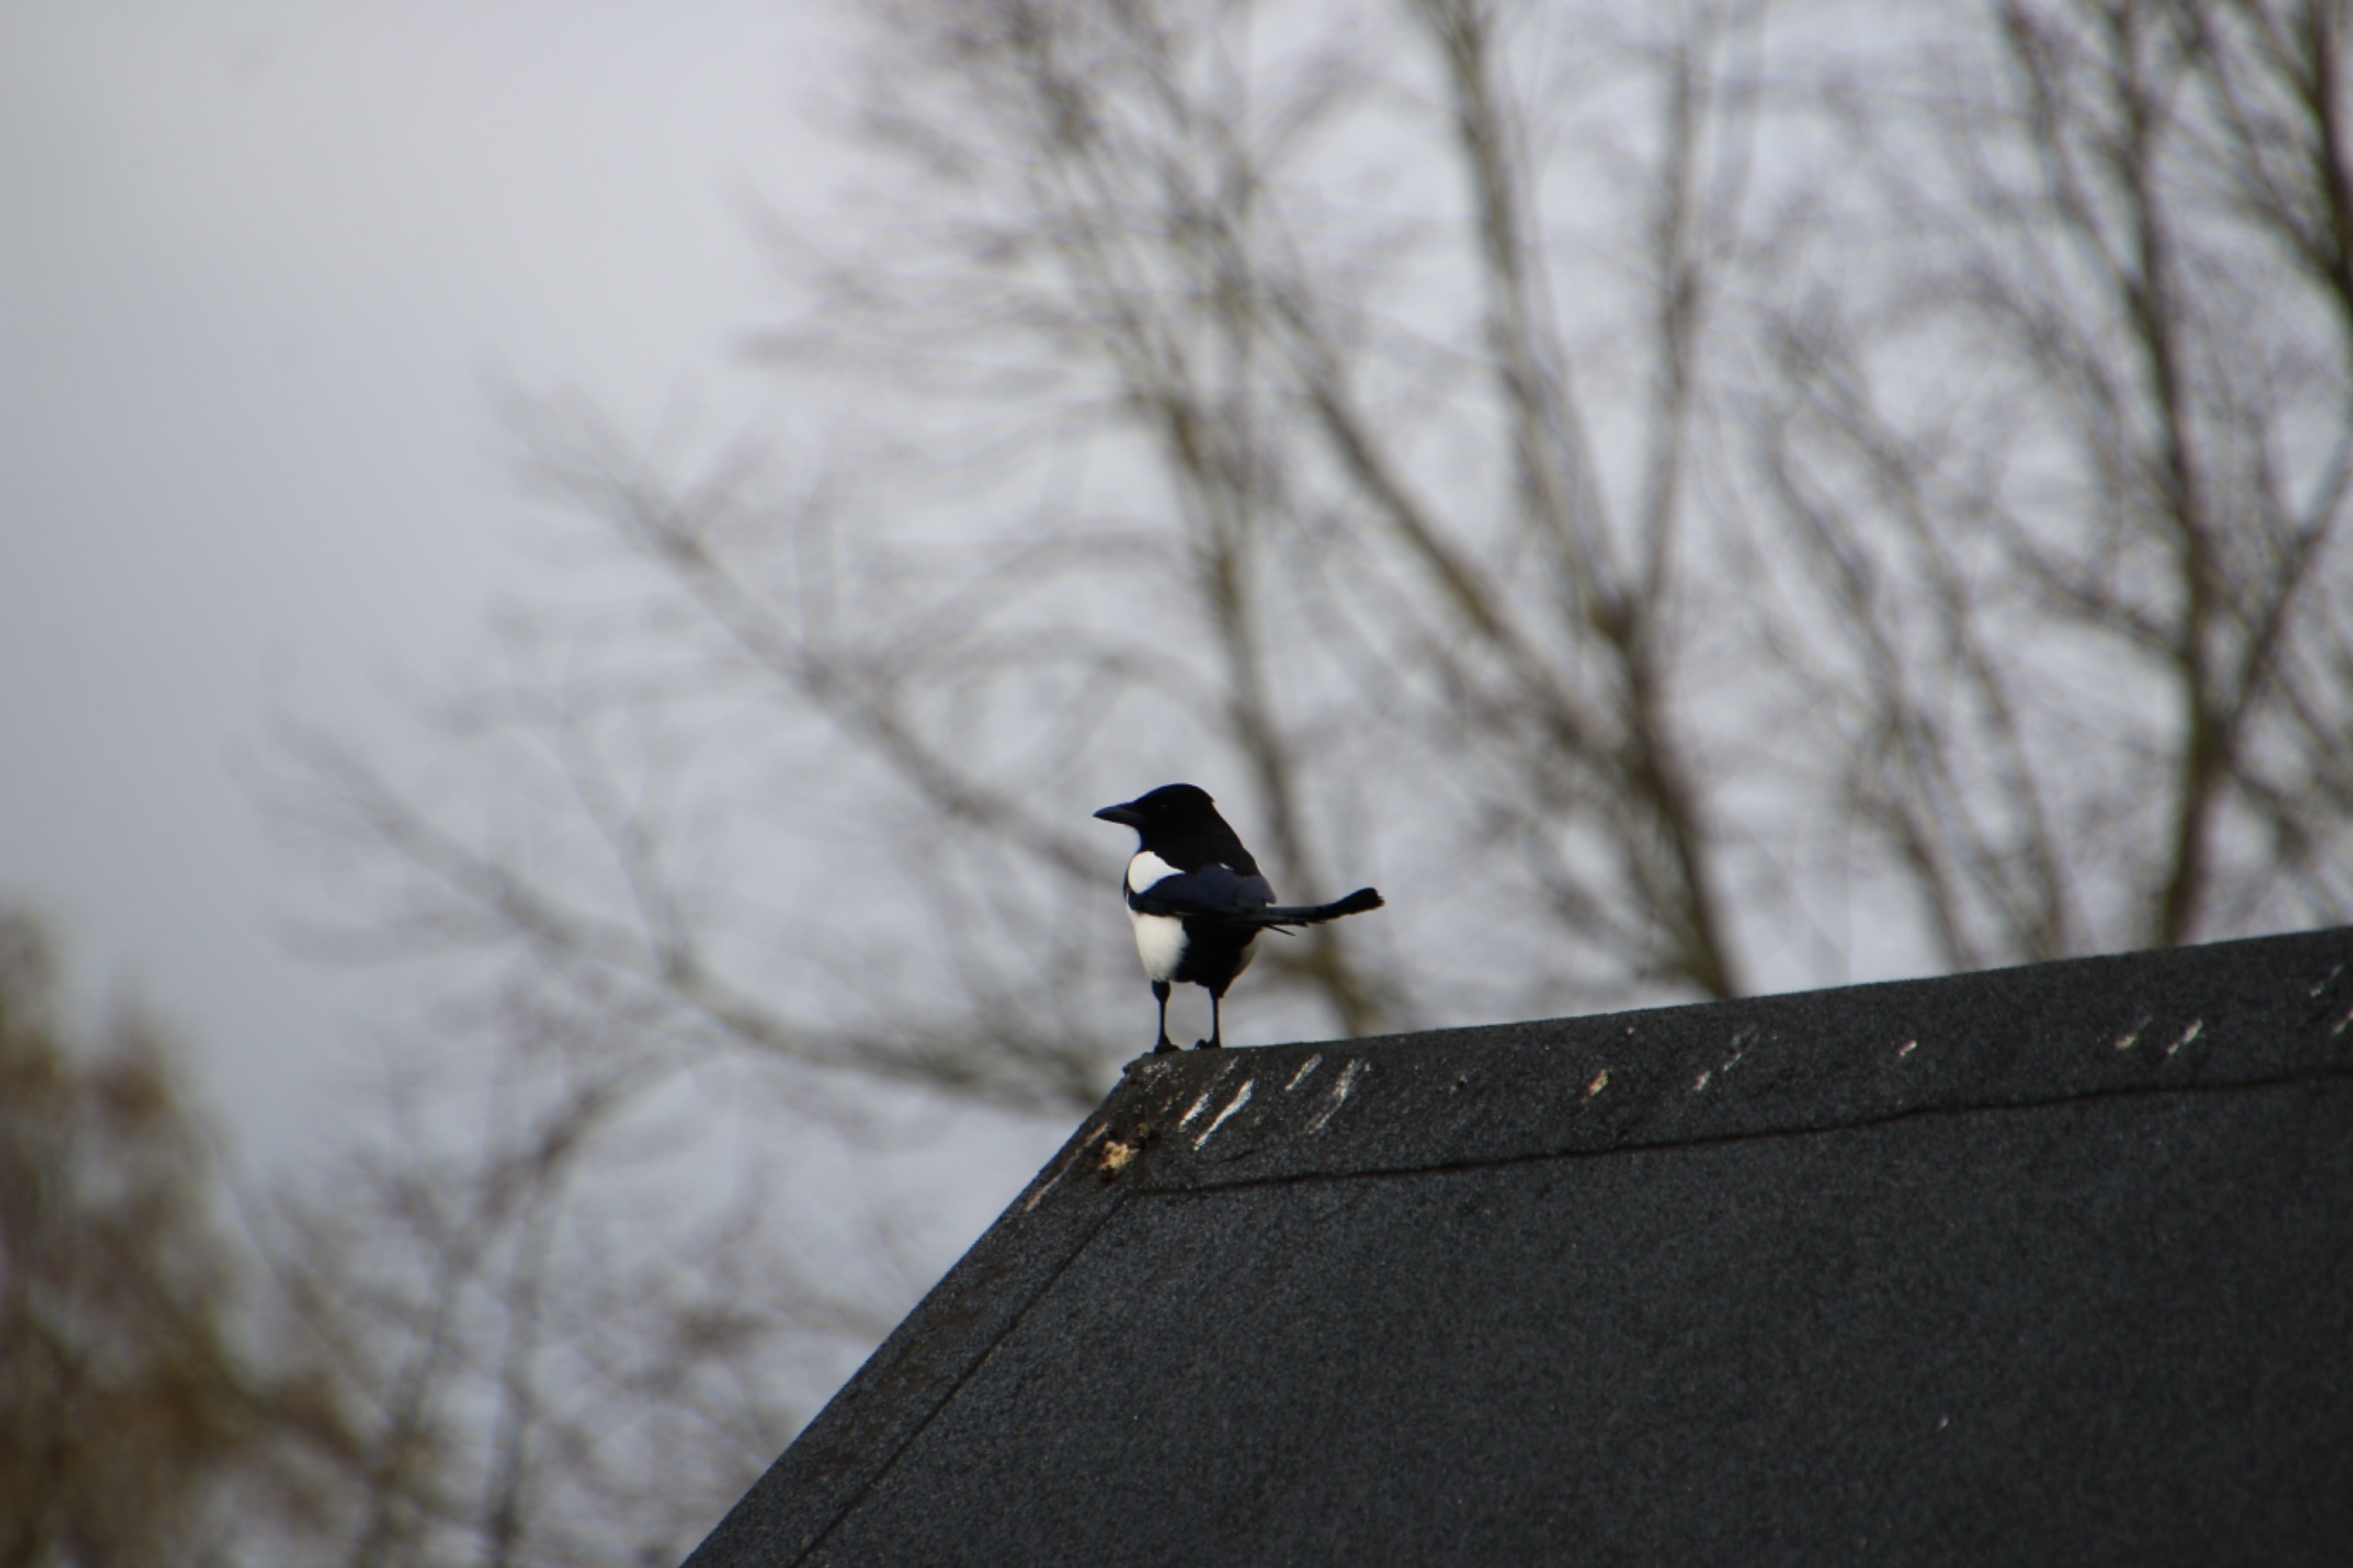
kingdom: Animalia
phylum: Chordata
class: Aves
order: Passeriformes
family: Corvidae
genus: Pica
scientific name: Pica pica
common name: Husskade
